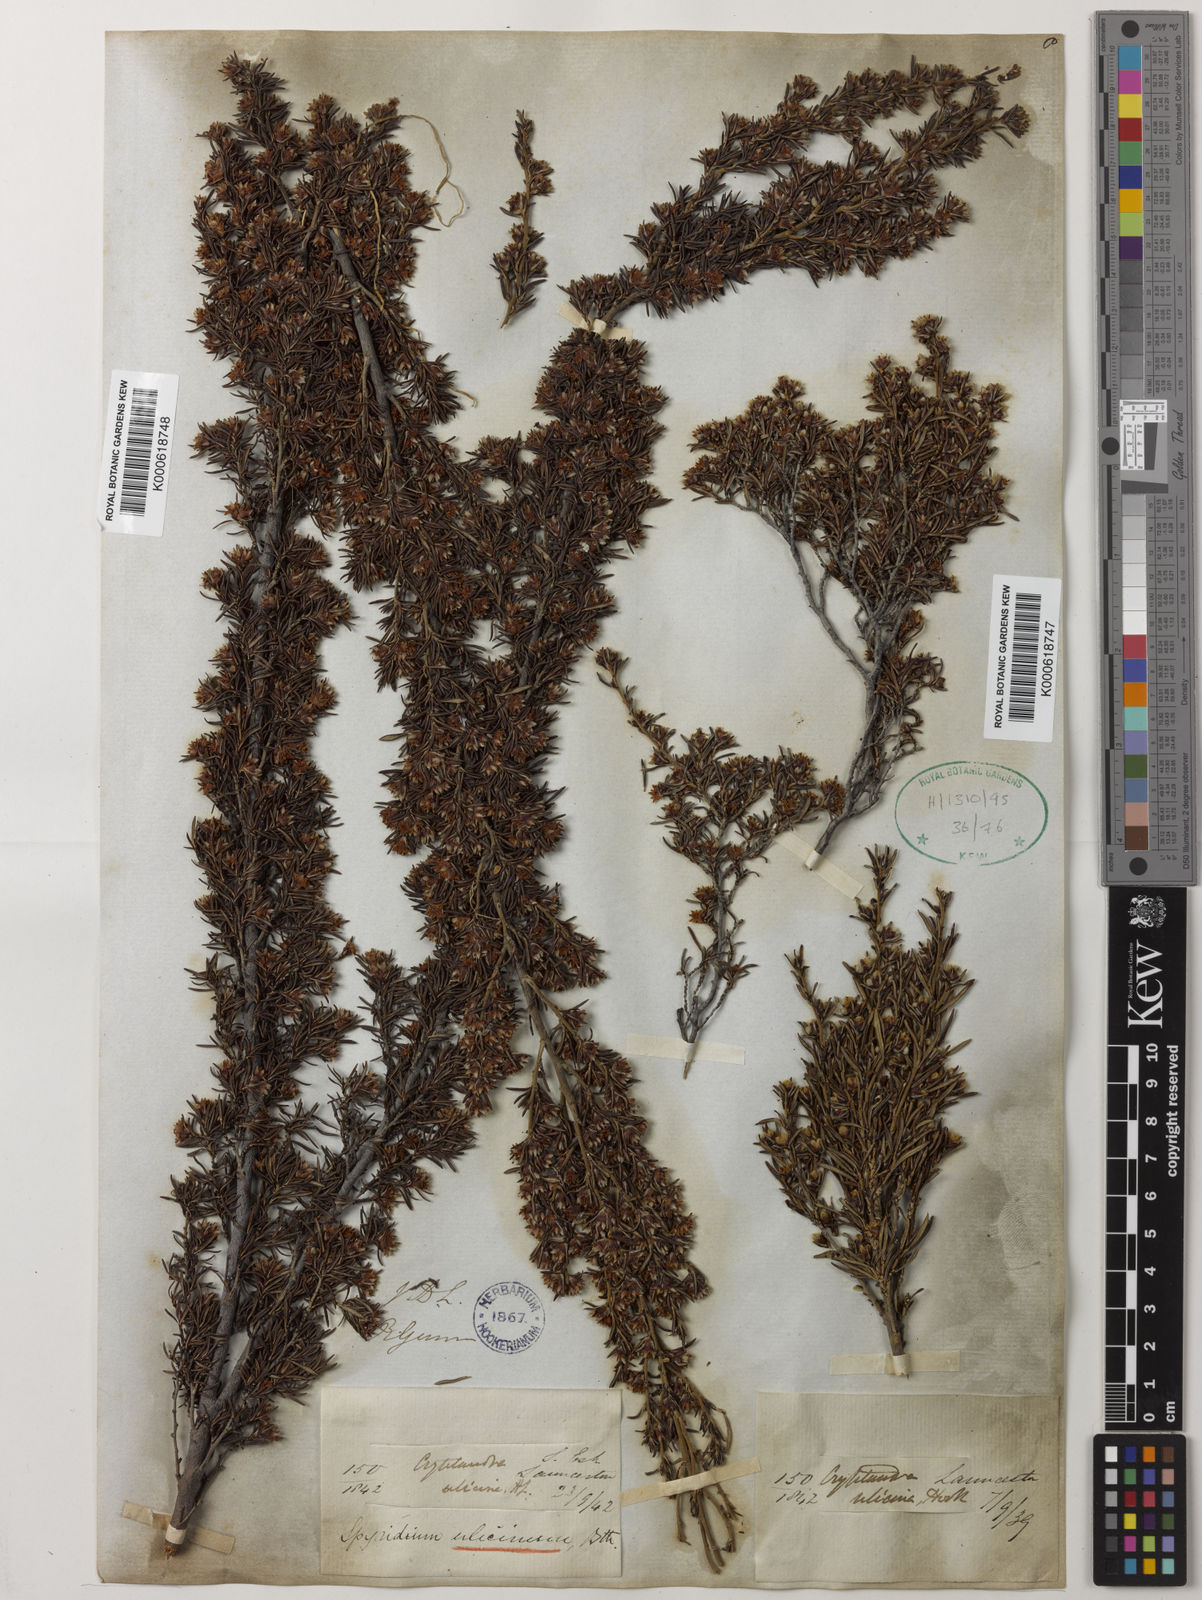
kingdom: Plantae
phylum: Tracheophyta
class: Magnoliopsida
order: Rosales
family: Rhamnaceae
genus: Spyridium
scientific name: Spyridium ulicinum
